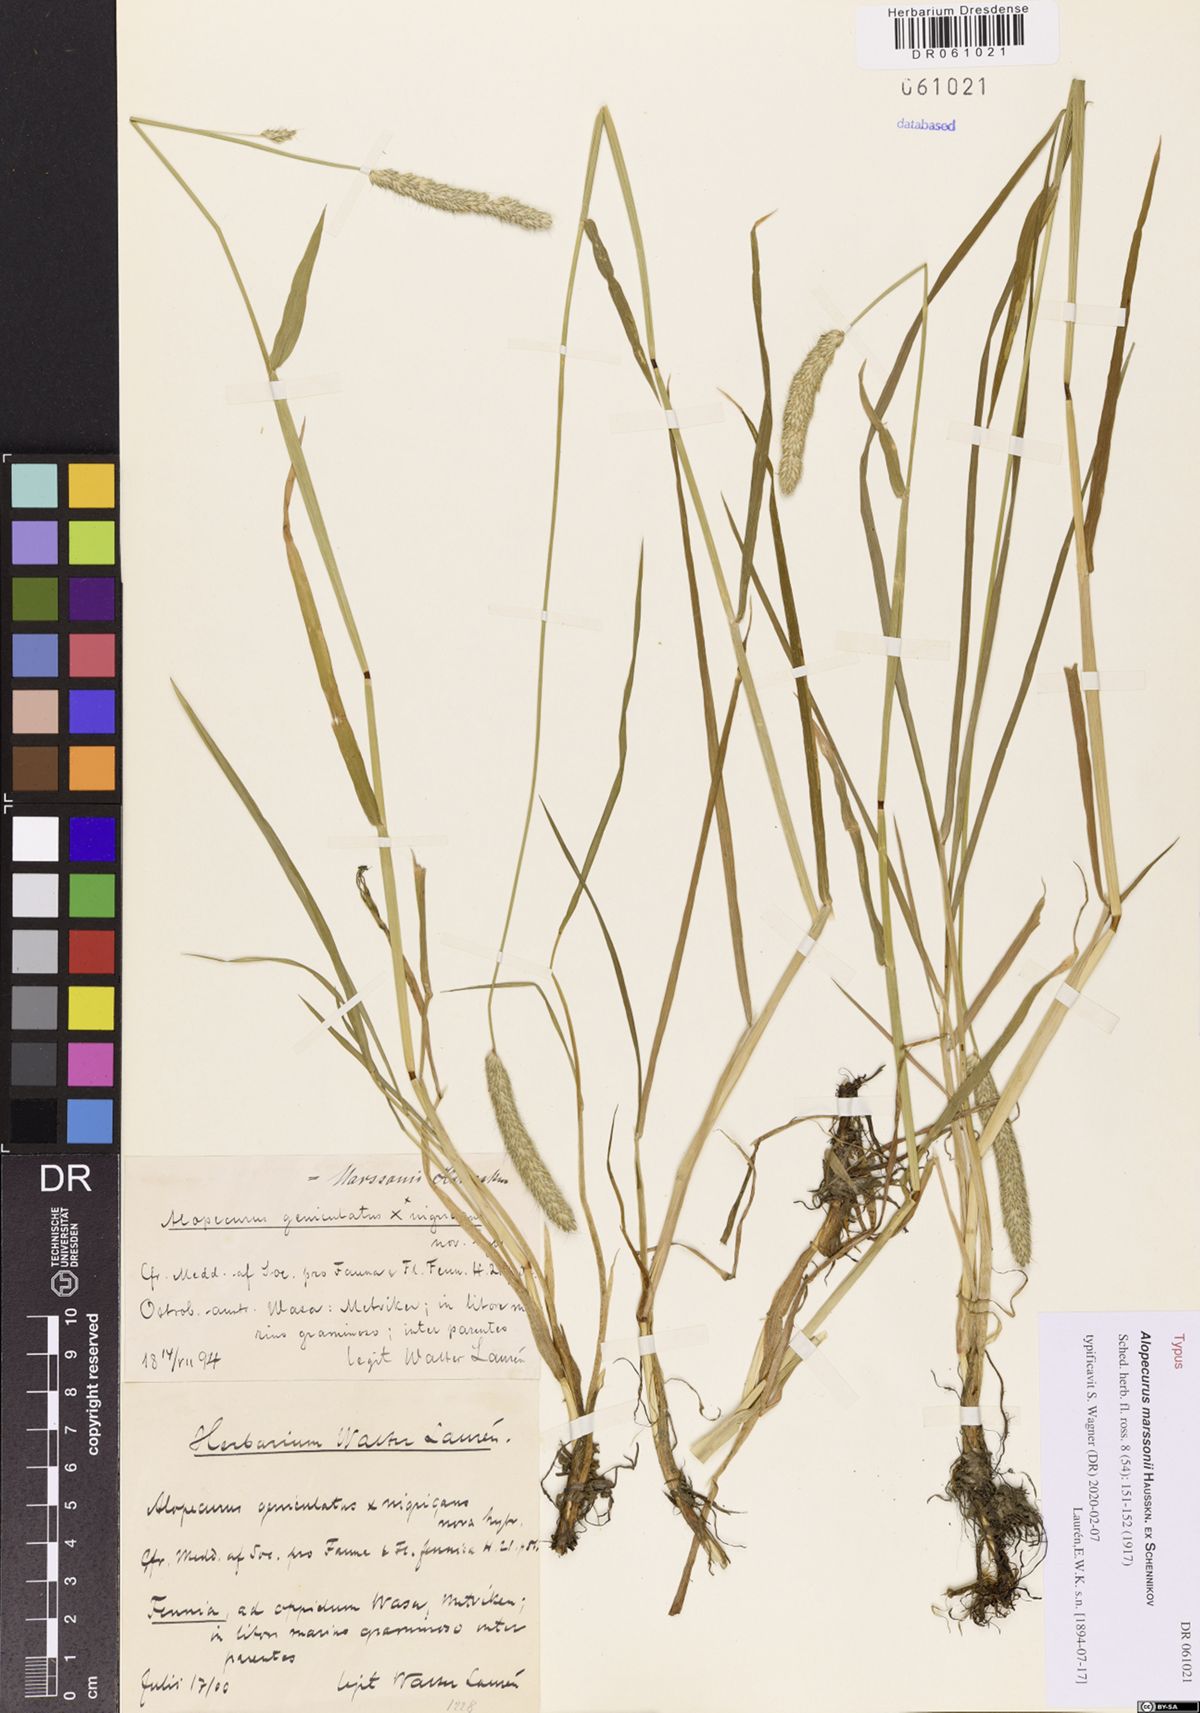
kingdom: Plantae
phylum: Tracheophyta
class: Liliopsida
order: Poales
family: Poaceae
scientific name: Poaceae
